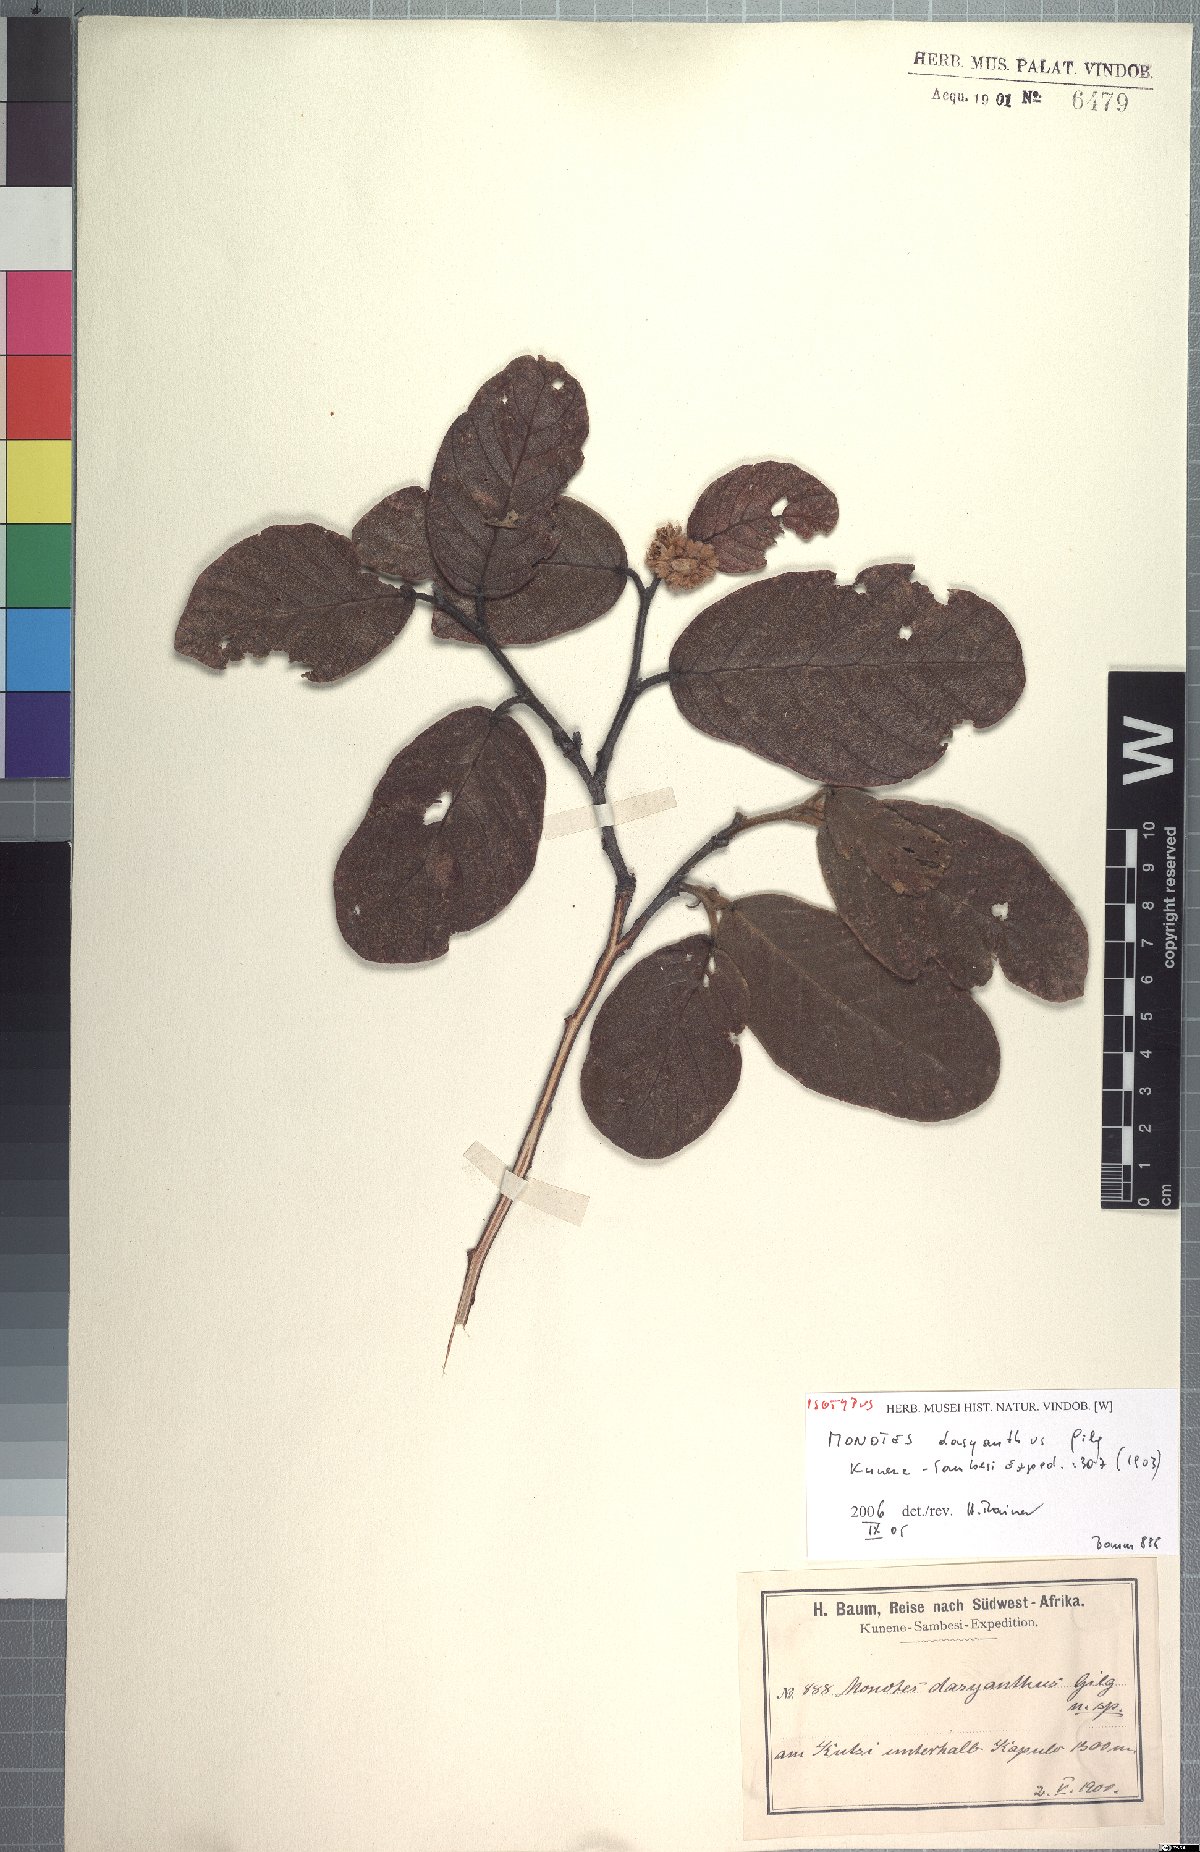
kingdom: Plantae
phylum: Tracheophyta
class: Magnoliopsida
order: Malvales
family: Dipterocarpaceae
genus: Monotes
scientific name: Monotes dasyanthus
